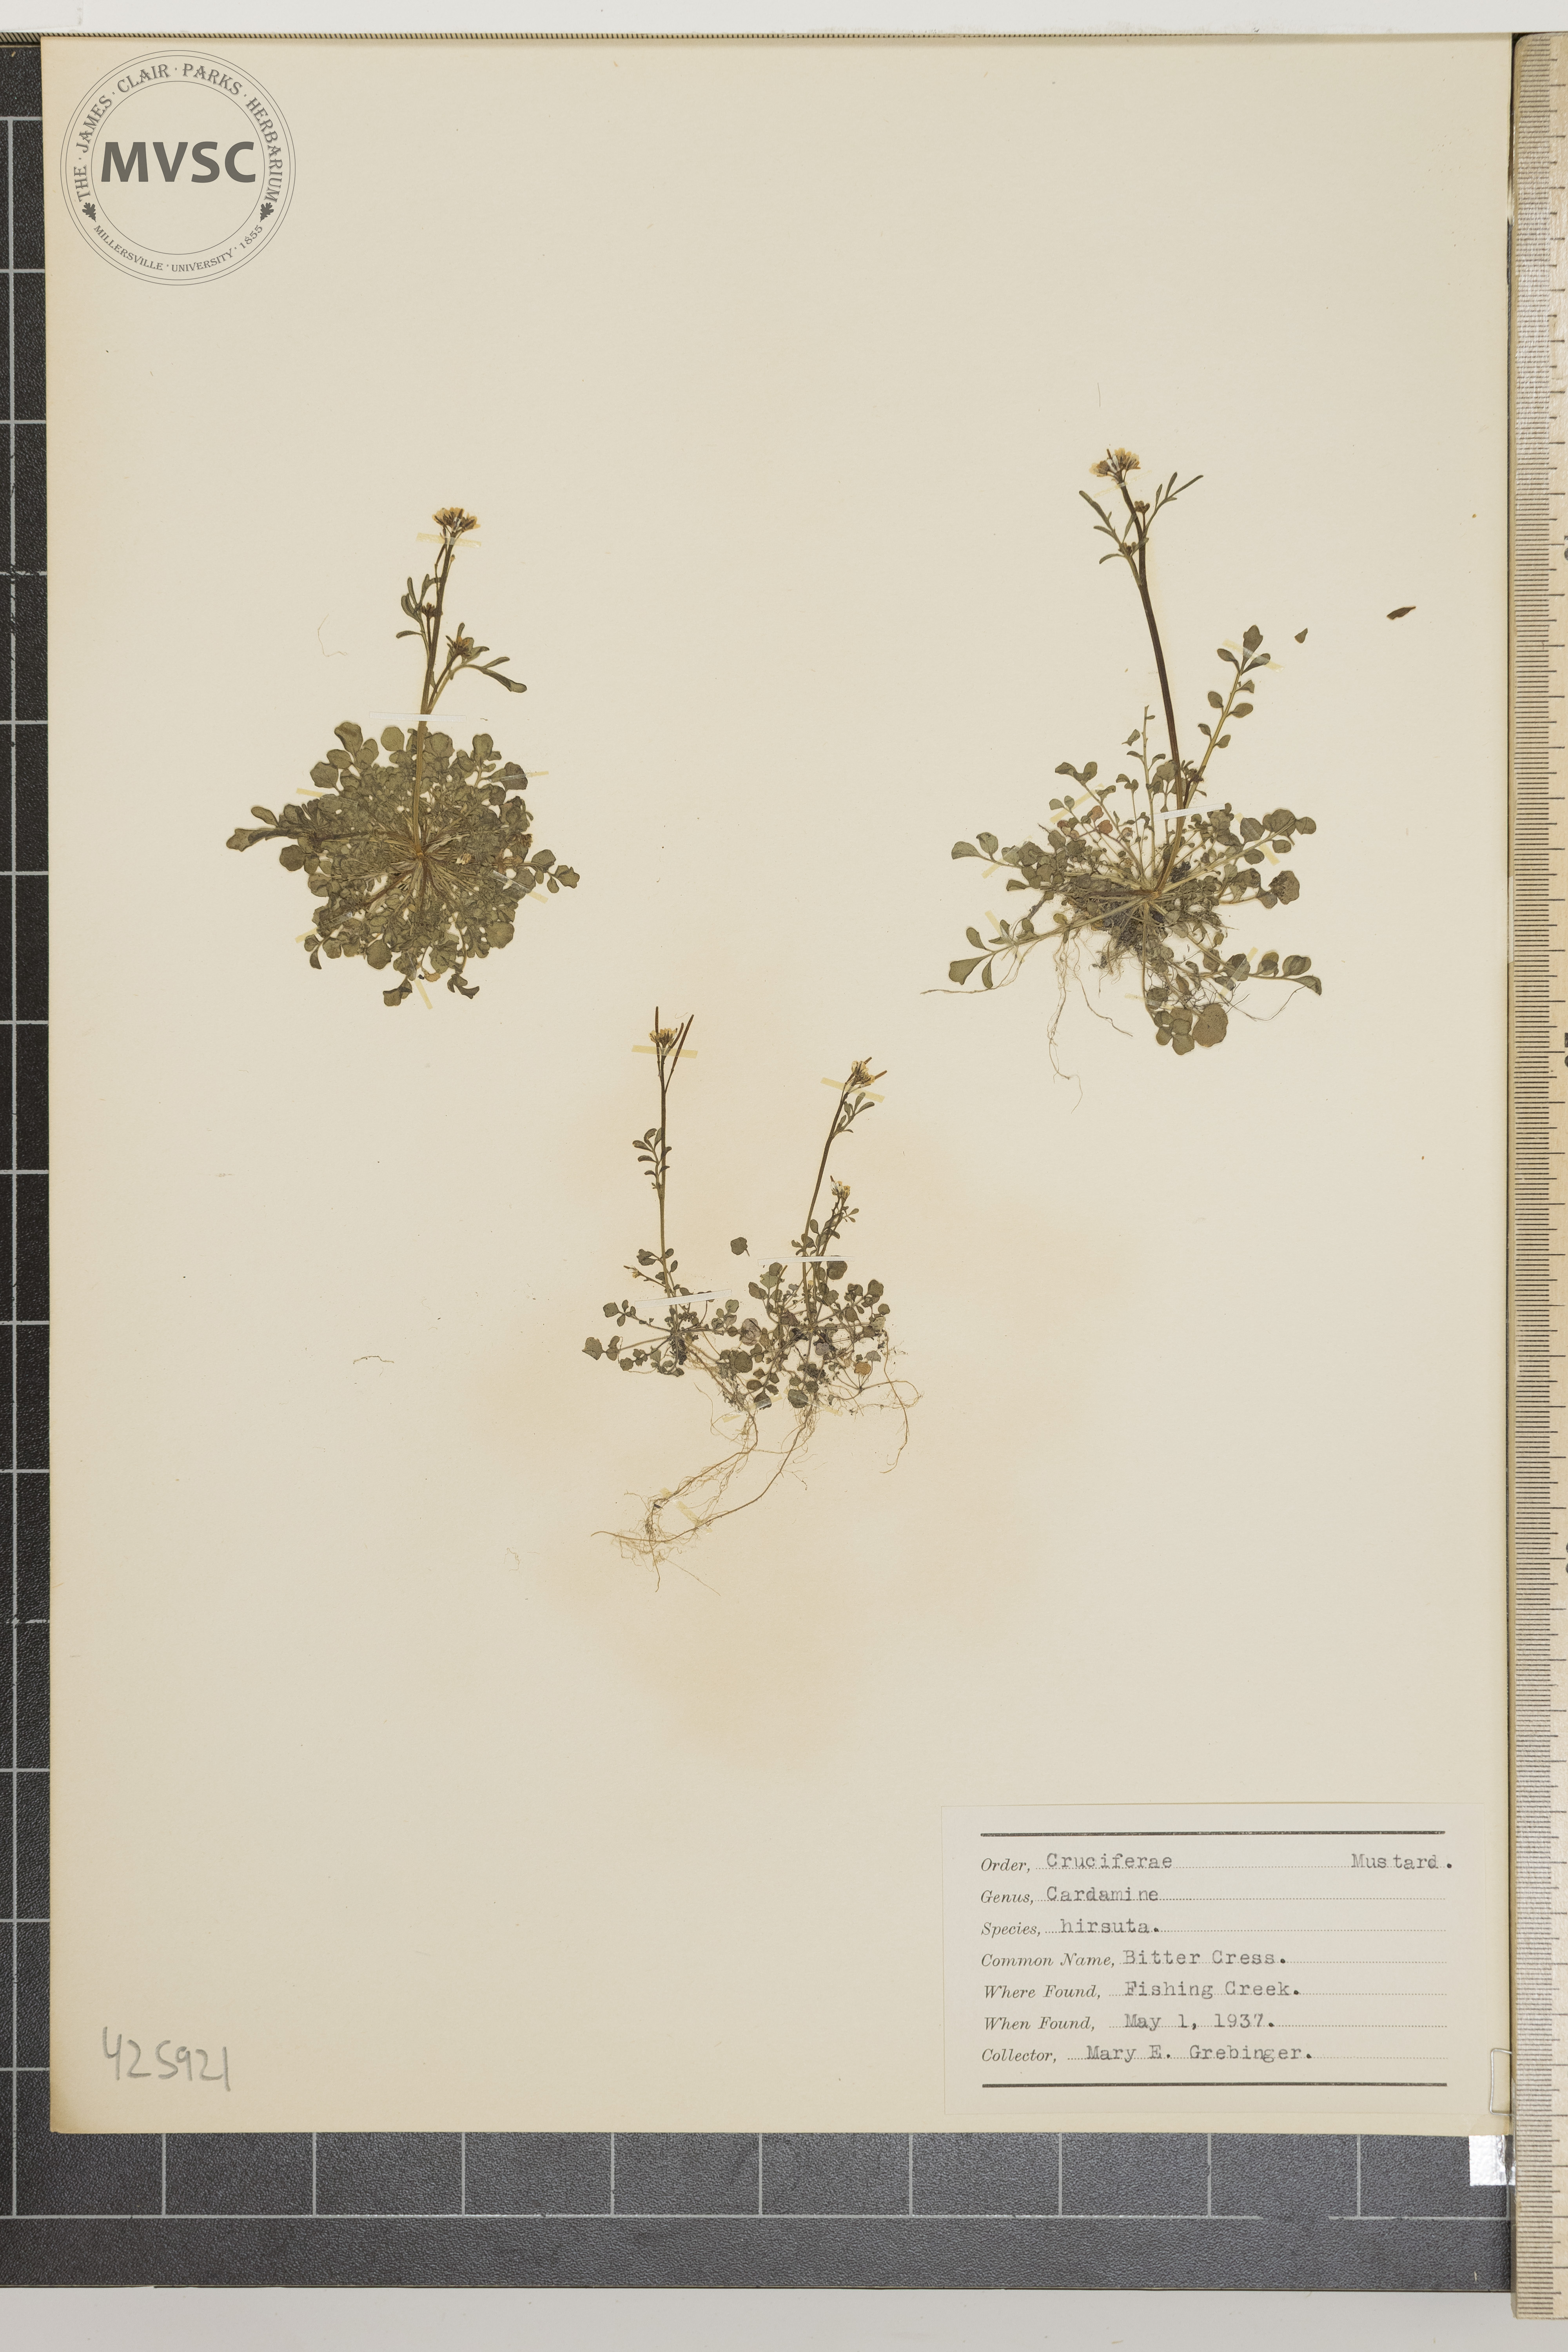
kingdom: Plantae
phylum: Tracheophyta
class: Magnoliopsida
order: Brassicales
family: Brassicaceae
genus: Cardamine
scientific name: Cardamine hirsuta
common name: Bitter cress
